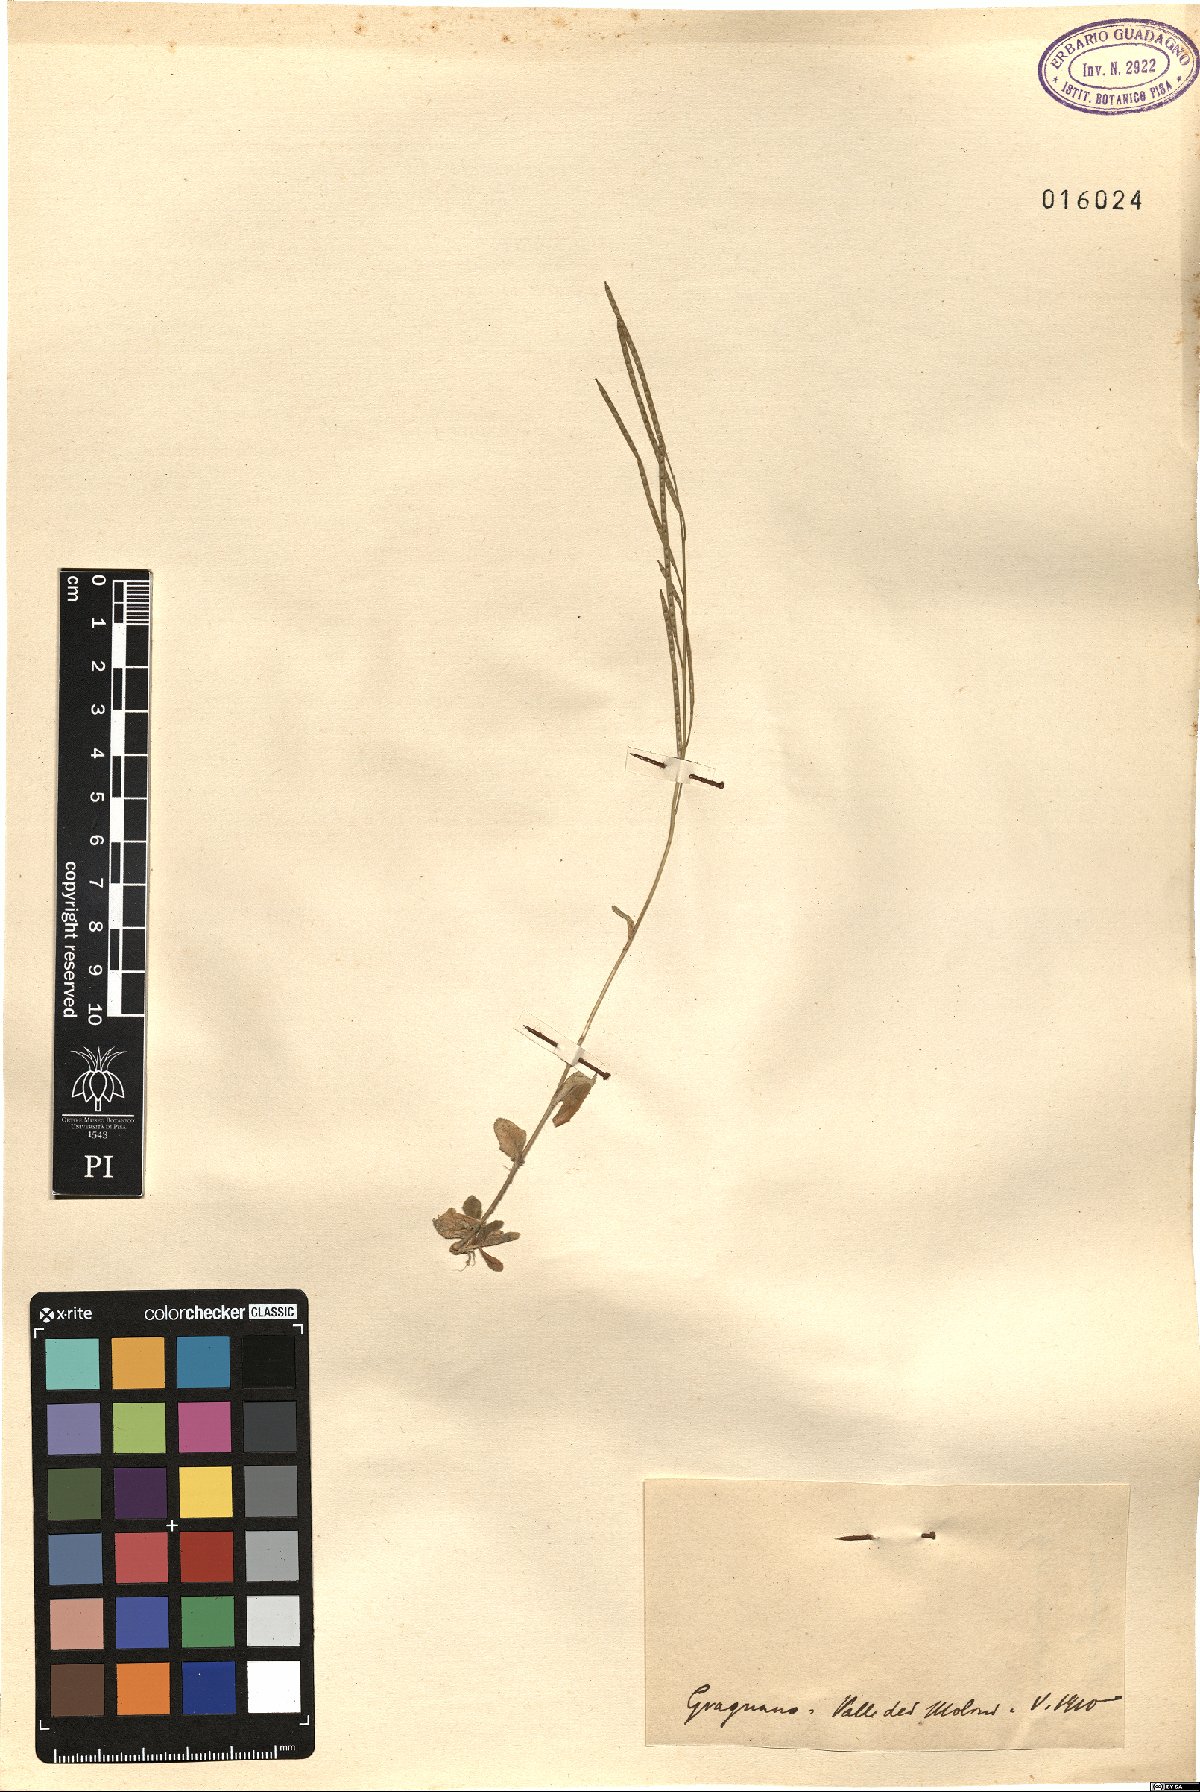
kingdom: Plantae
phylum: Tracheophyta
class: Magnoliopsida
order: Brassicales
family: Brassicaceae
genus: Arabis
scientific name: Arabis
